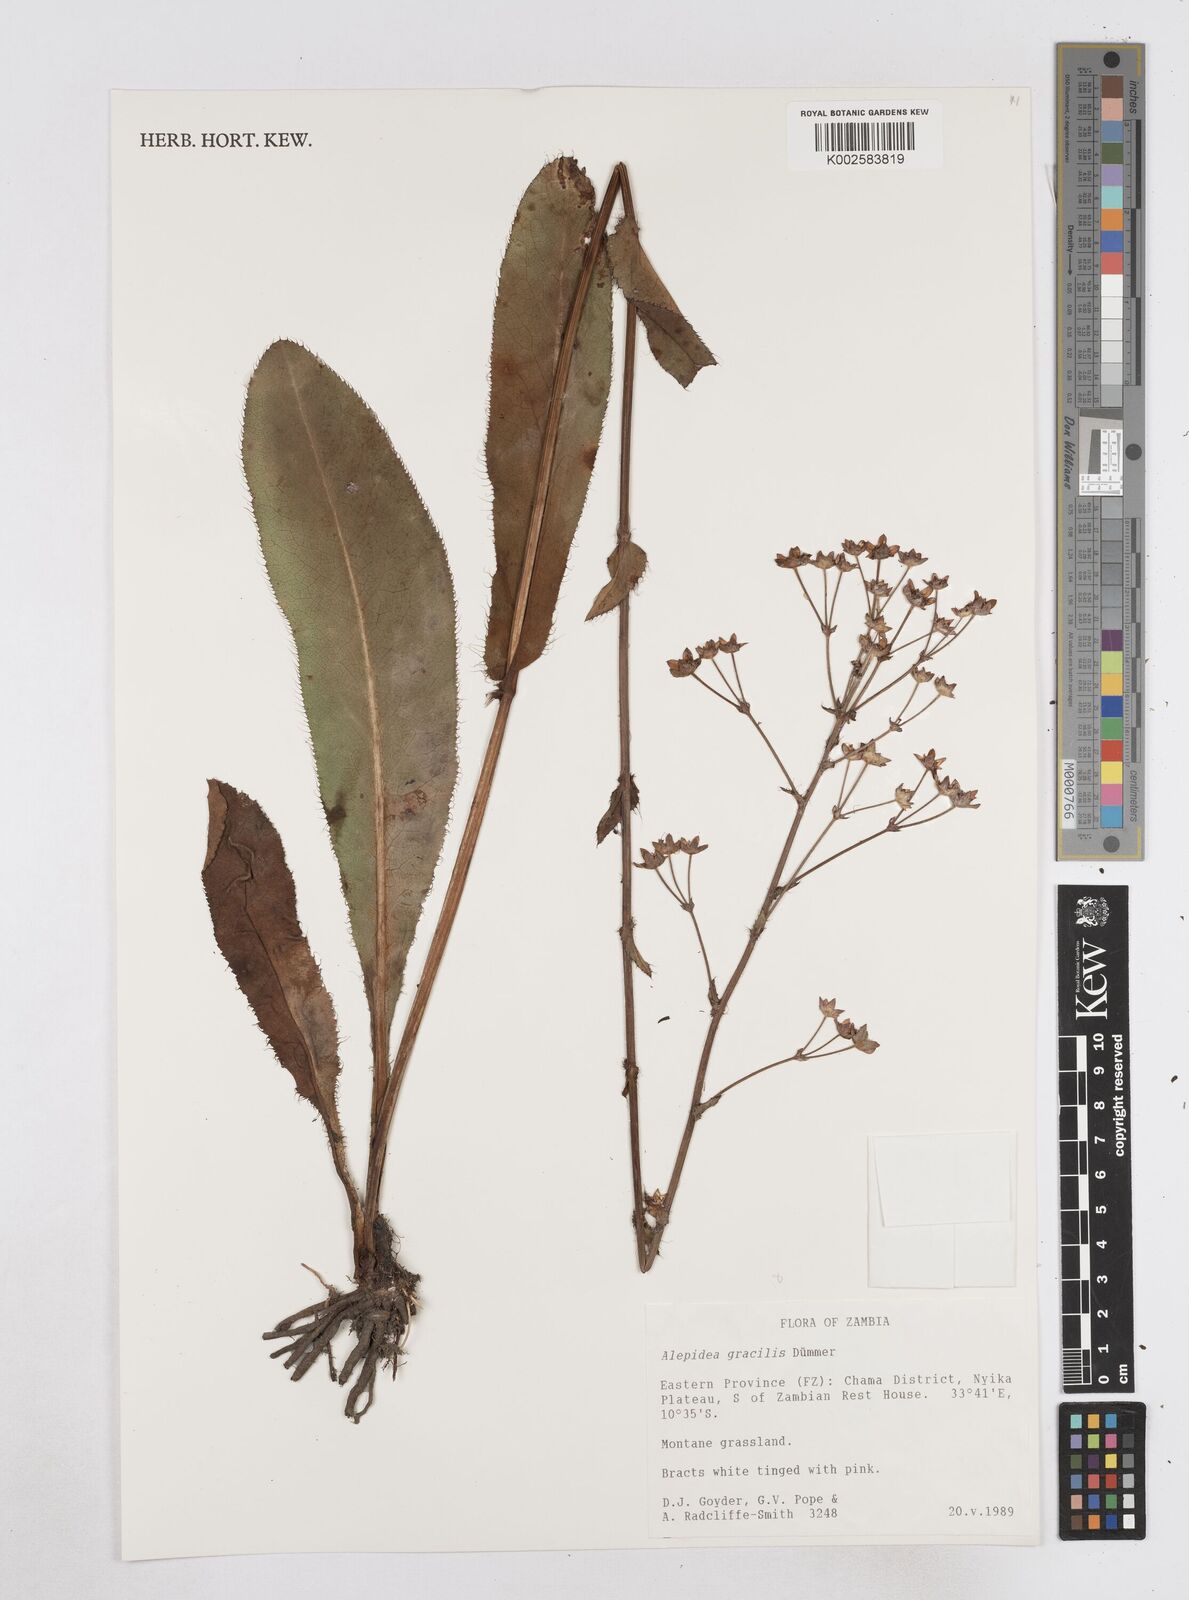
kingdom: Plantae
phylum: Tracheophyta
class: Magnoliopsida
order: Apiales
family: Apiaceae
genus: Alepidea
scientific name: Alepidea peduncularis
